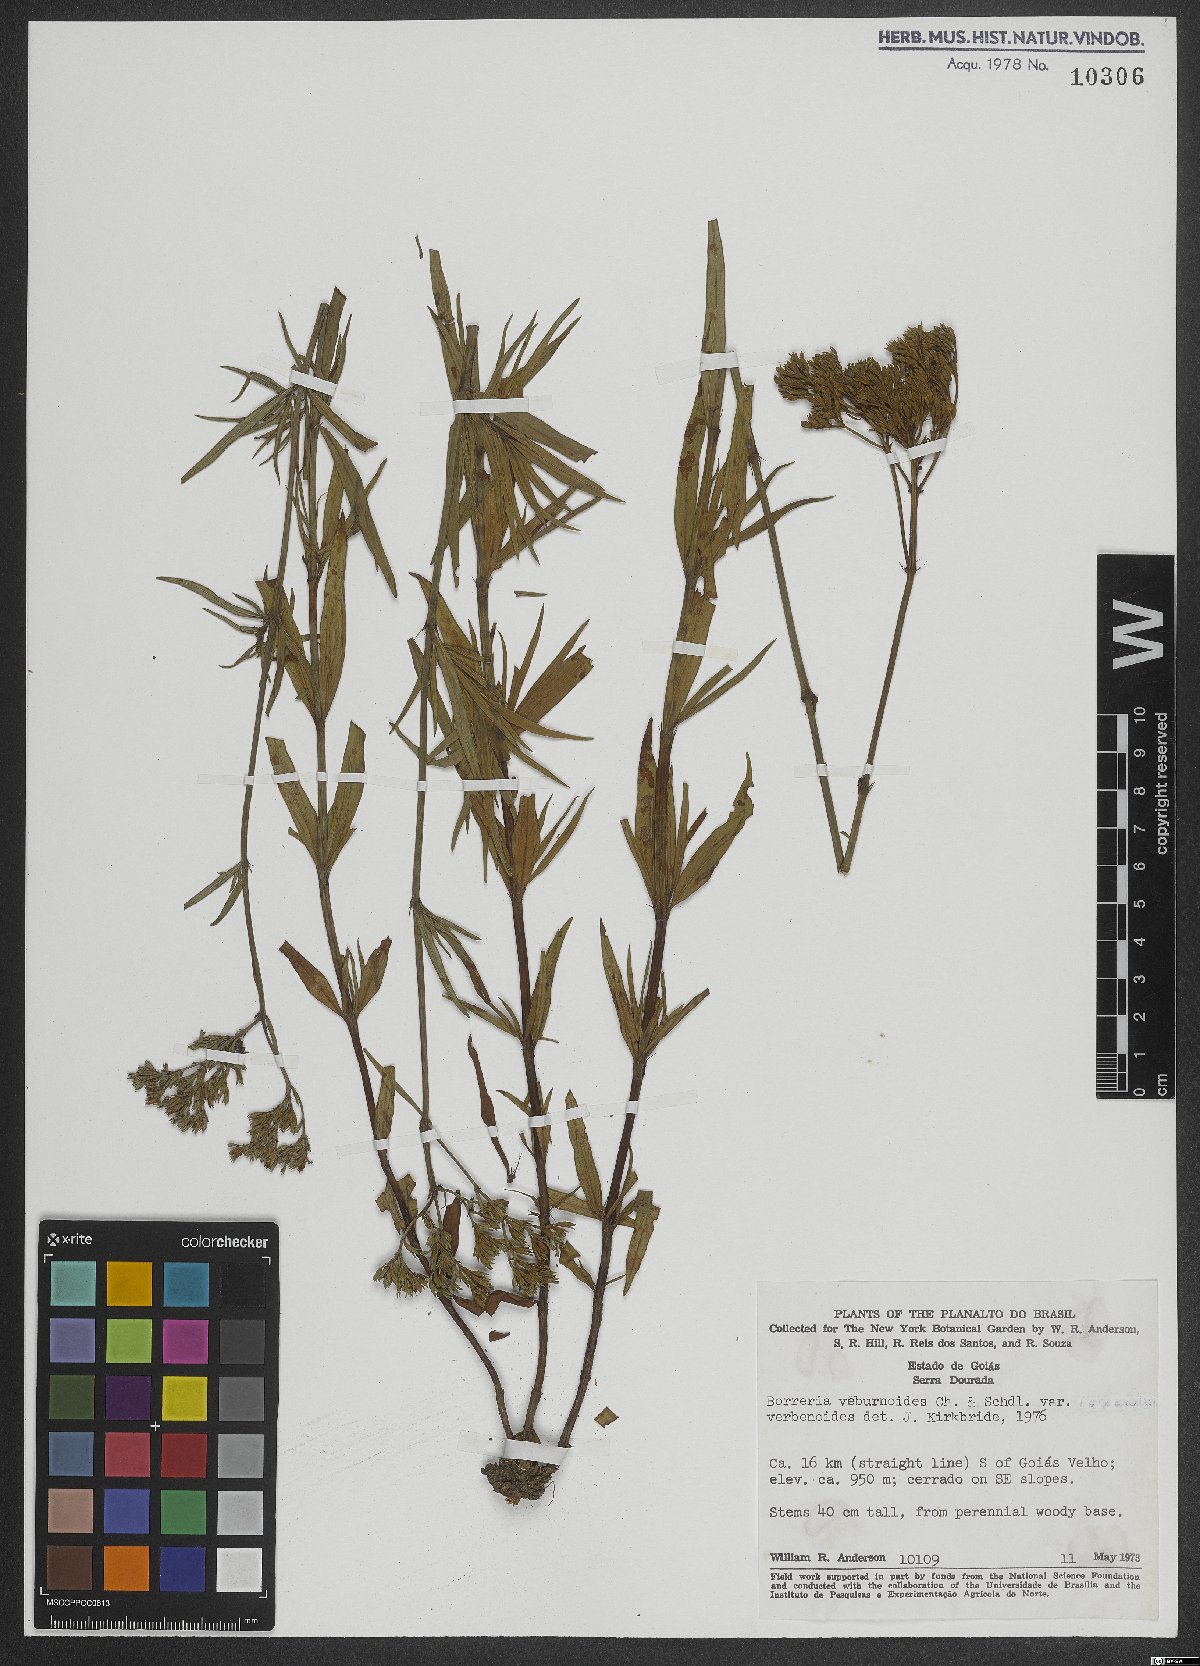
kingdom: Plantae
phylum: Tracheophyta
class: Magnoliopsida
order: Gentianales
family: Rubiaceae
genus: Spermacoce
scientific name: Spermacoce verbenoides
